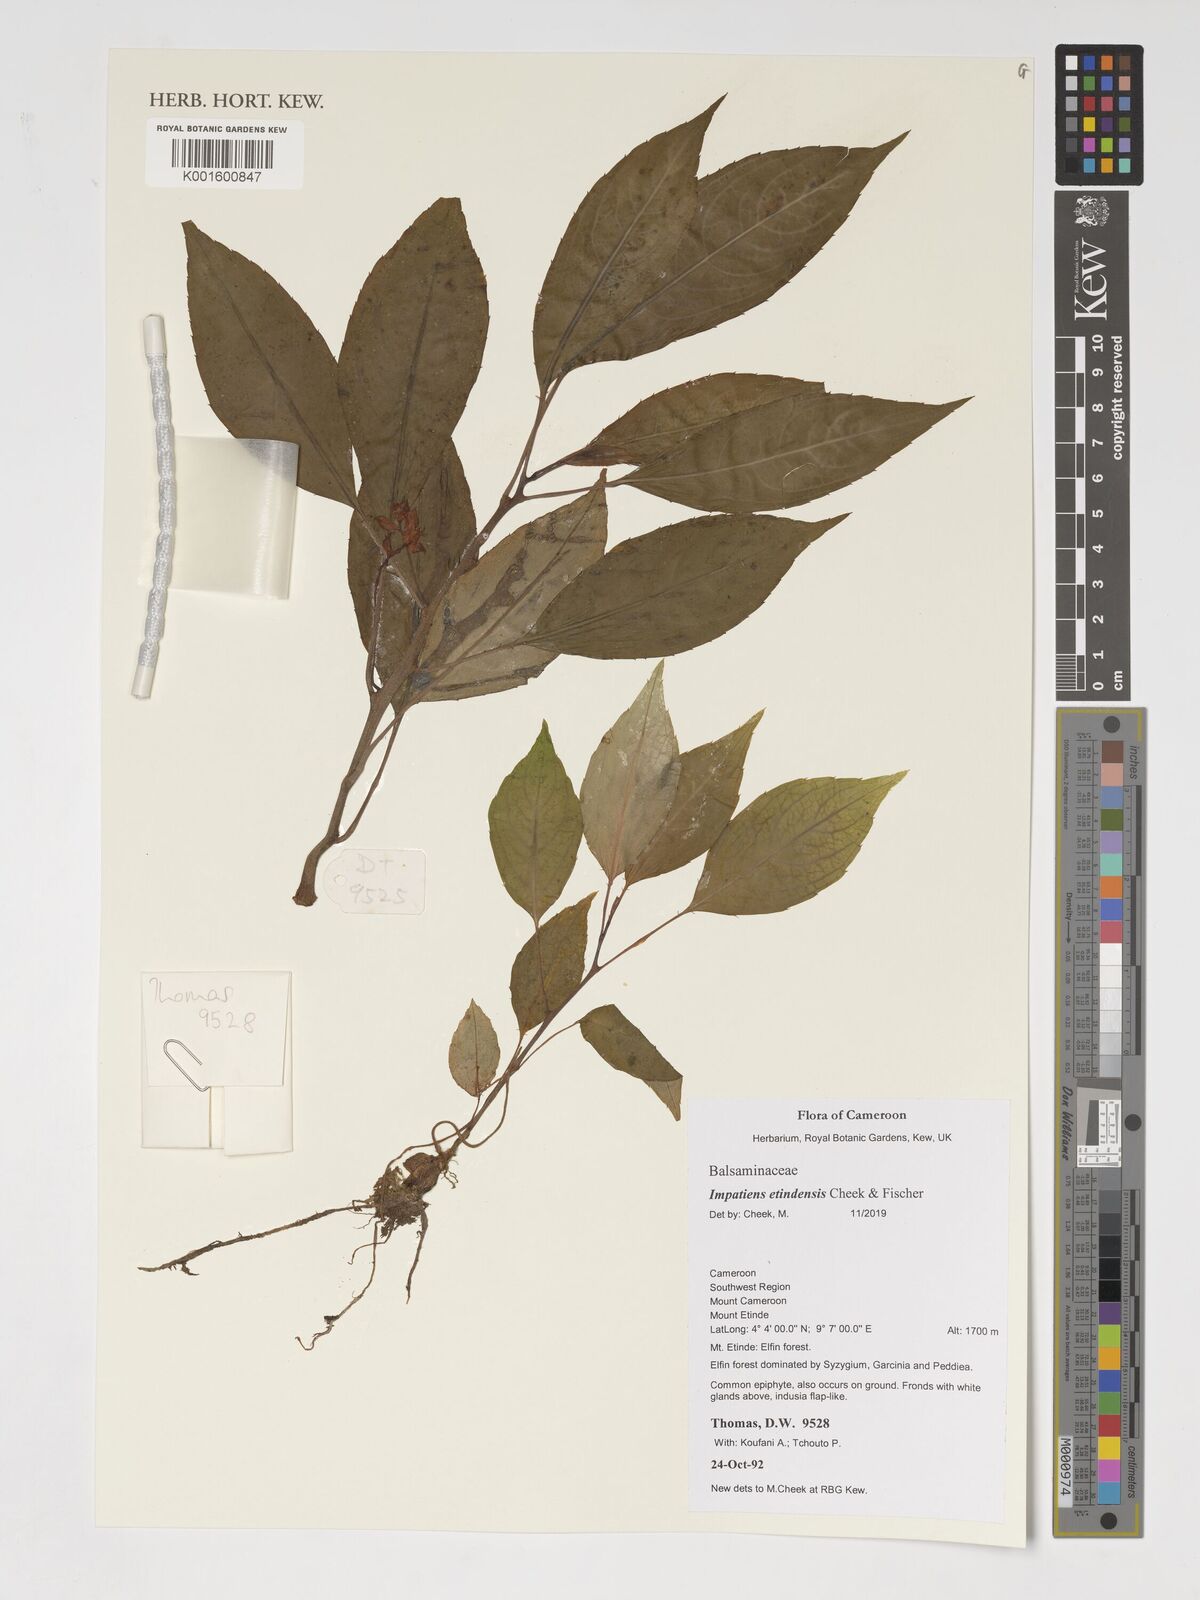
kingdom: Plantae
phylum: Tracheophyta
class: Magnoliopsida
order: Ericales
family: Balsaminaceae
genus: Impatiens
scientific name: Impatiens etindensis
